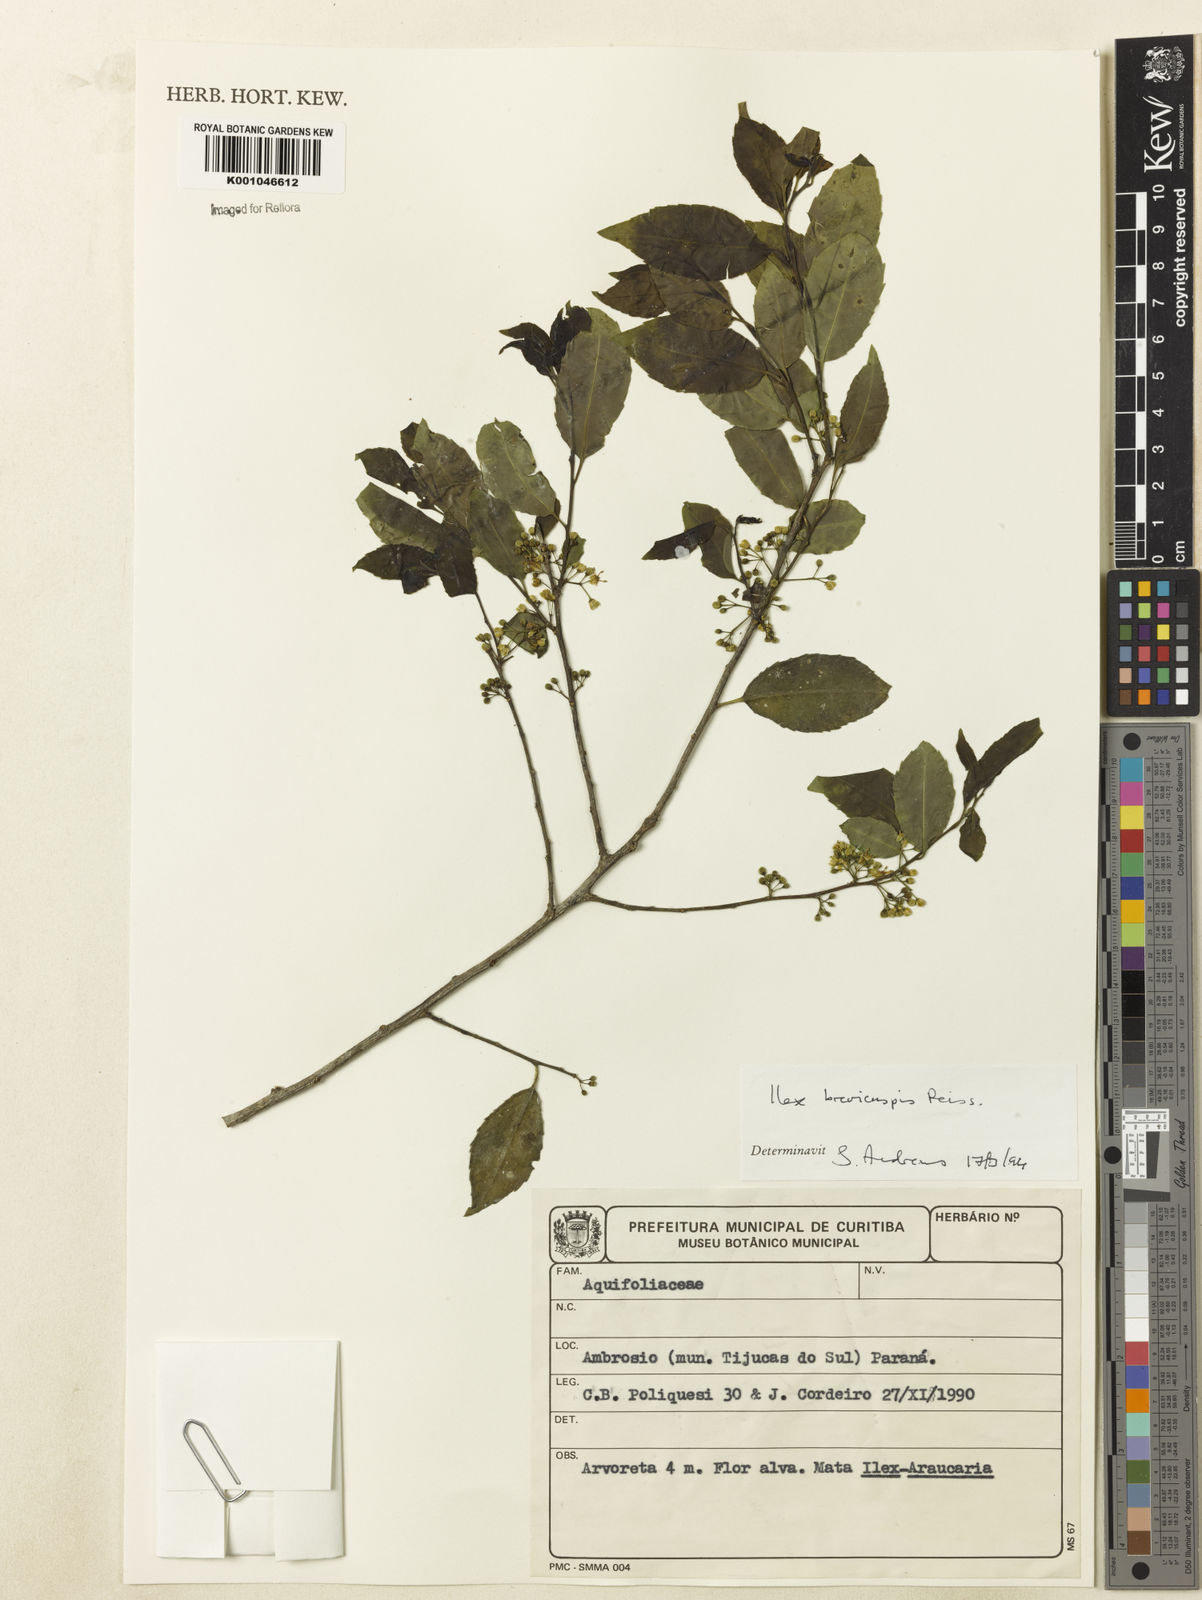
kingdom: Plantae
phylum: Tracheophyta
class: Magnoliopsida
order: Aquifoliales
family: Aquifoliaceae
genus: Ilex
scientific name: Ilex brevicuspis
